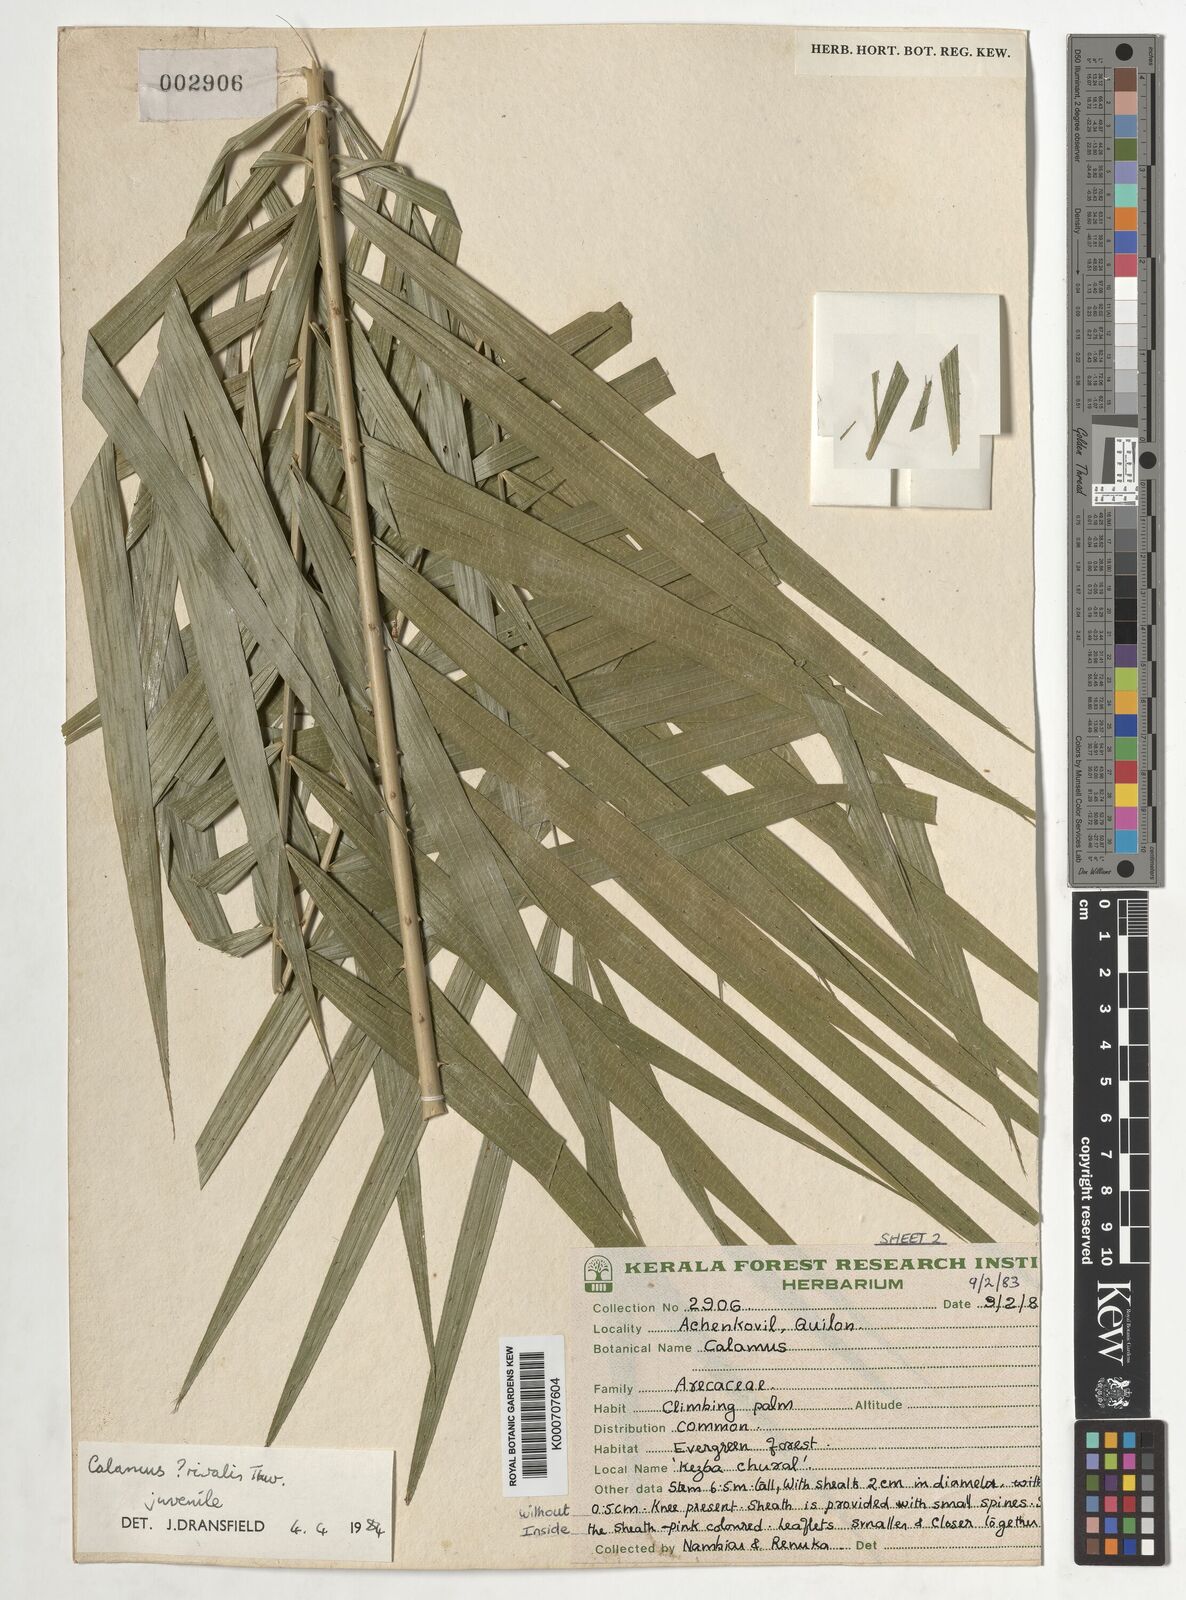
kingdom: Plantae
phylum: Tracheophyta
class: Liliopsida
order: Arecales
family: Arecaceae
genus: Calamus
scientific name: Calamus metzianus
